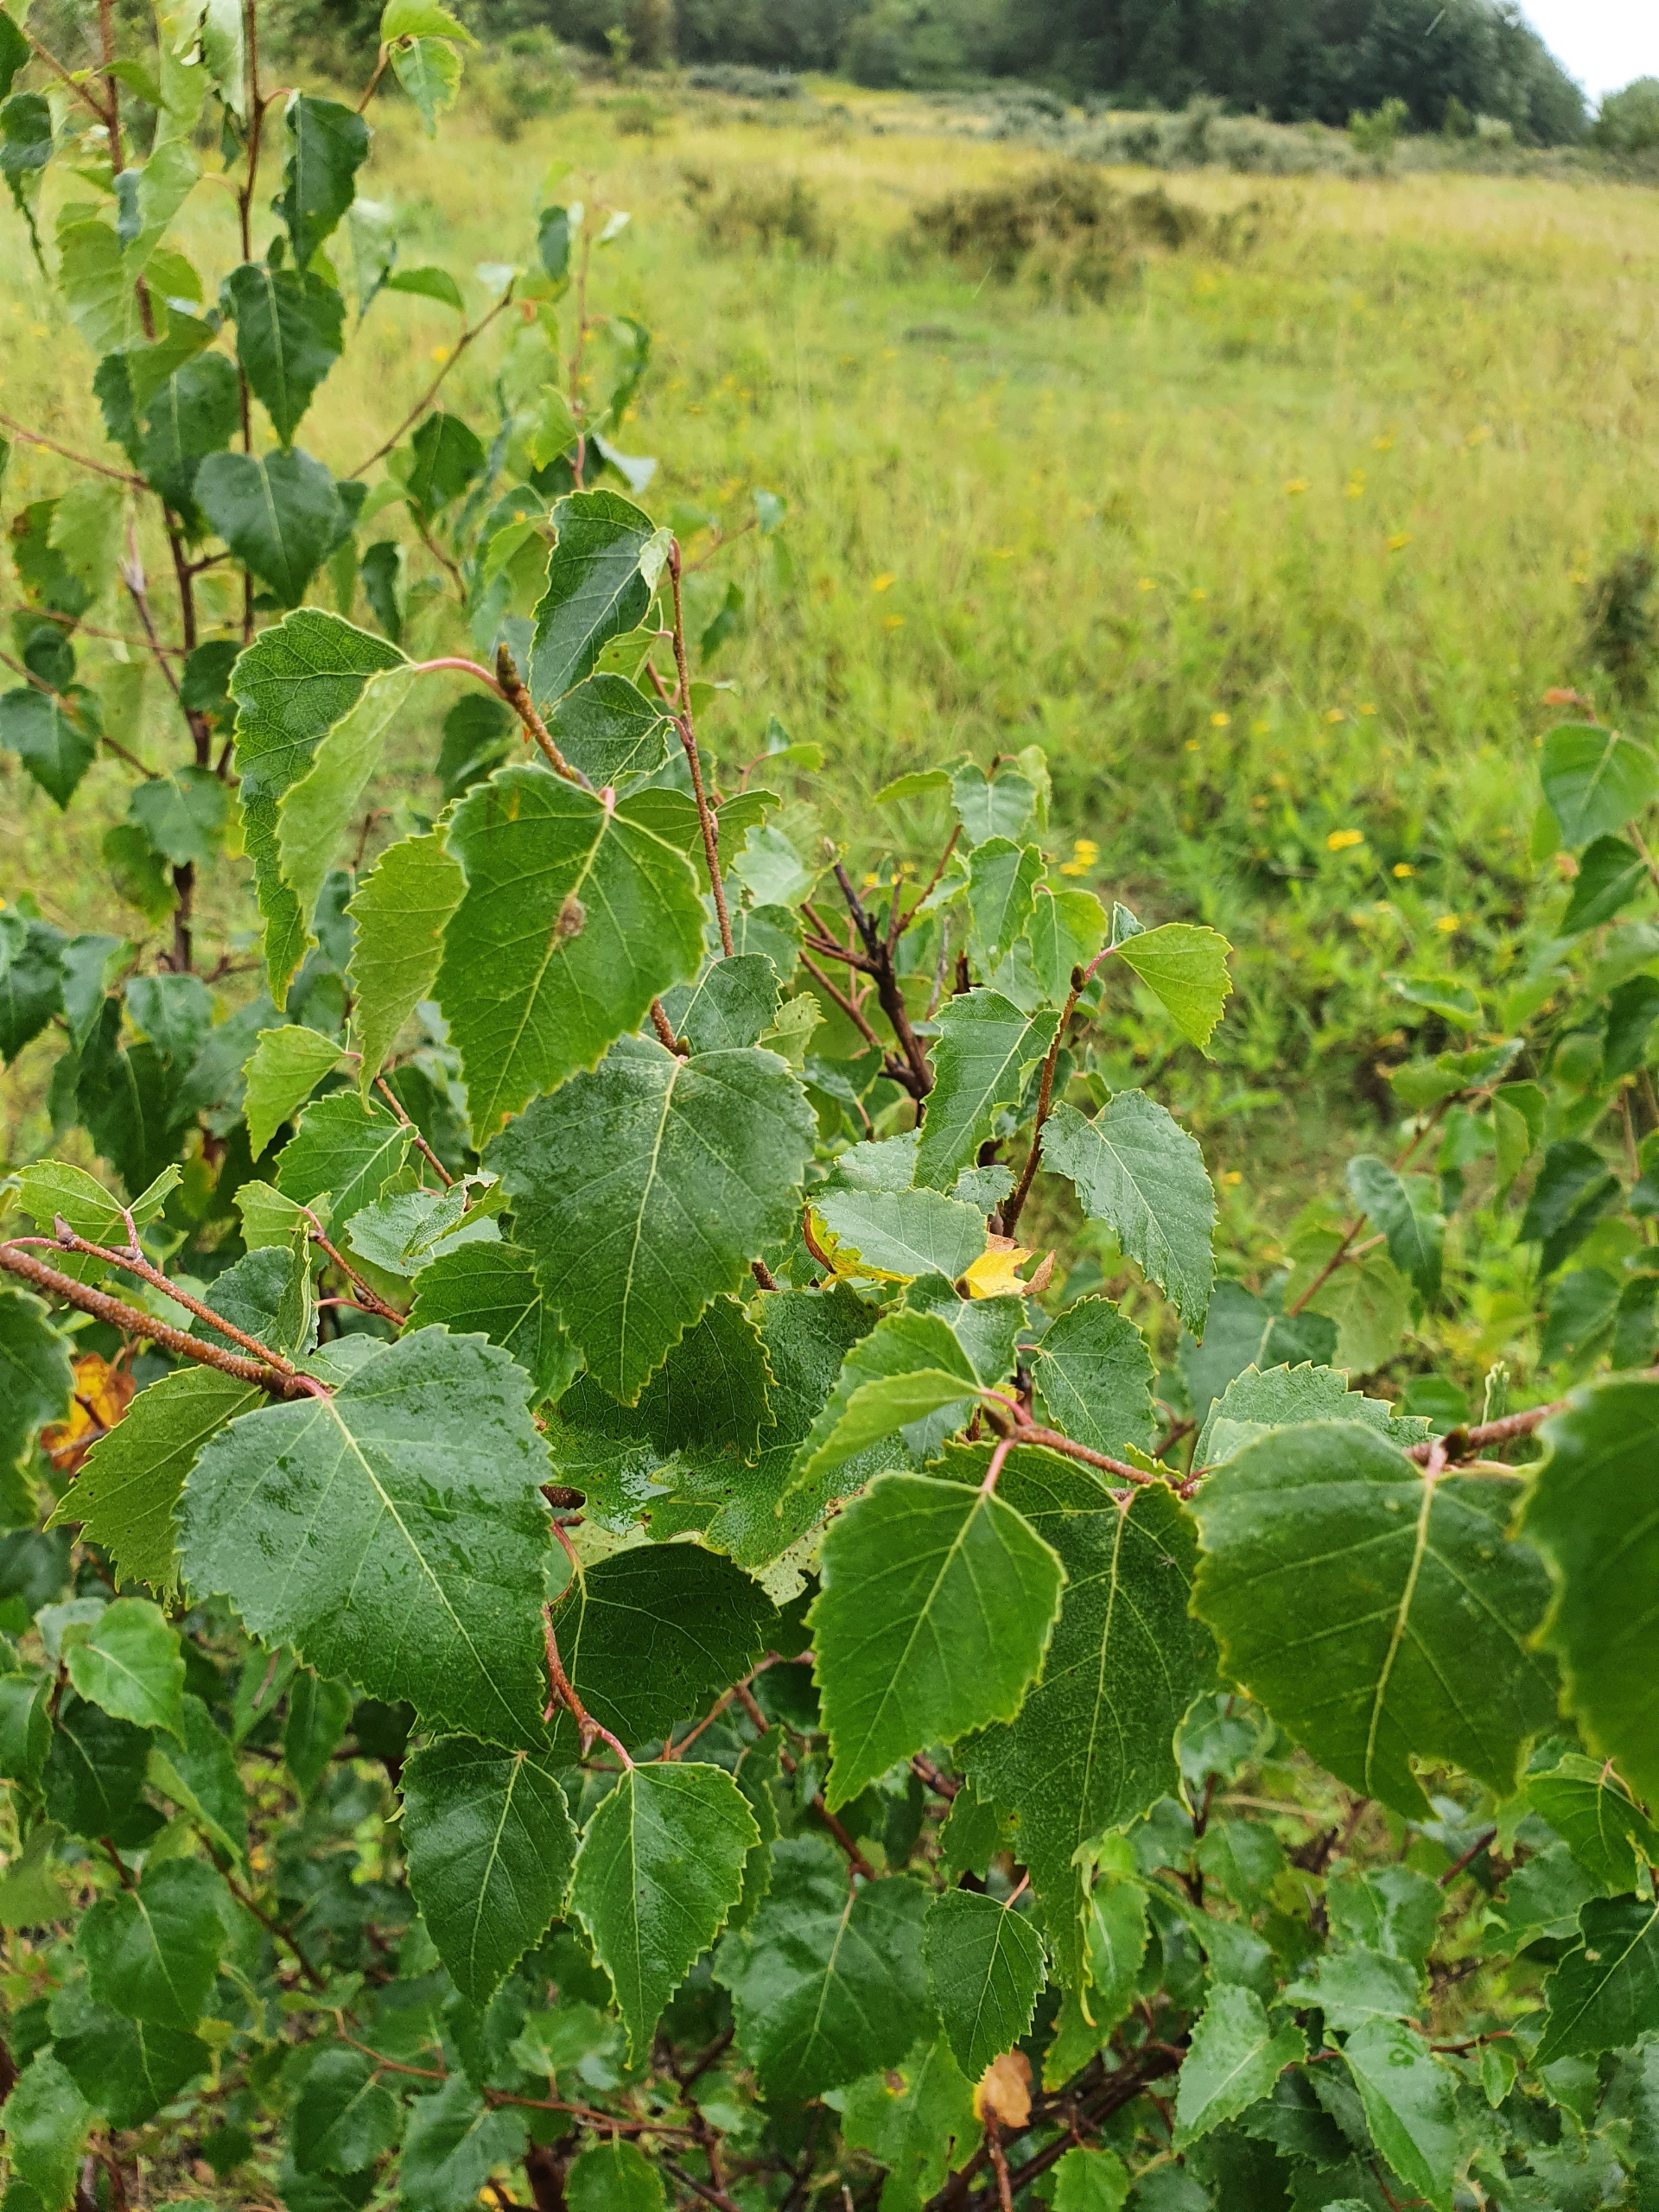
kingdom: Plantae
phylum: Tracheophyta
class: Magnoliopsida
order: Fagales
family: Betulaceae
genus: Betula
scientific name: Betula pendula
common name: Vorte-birk
